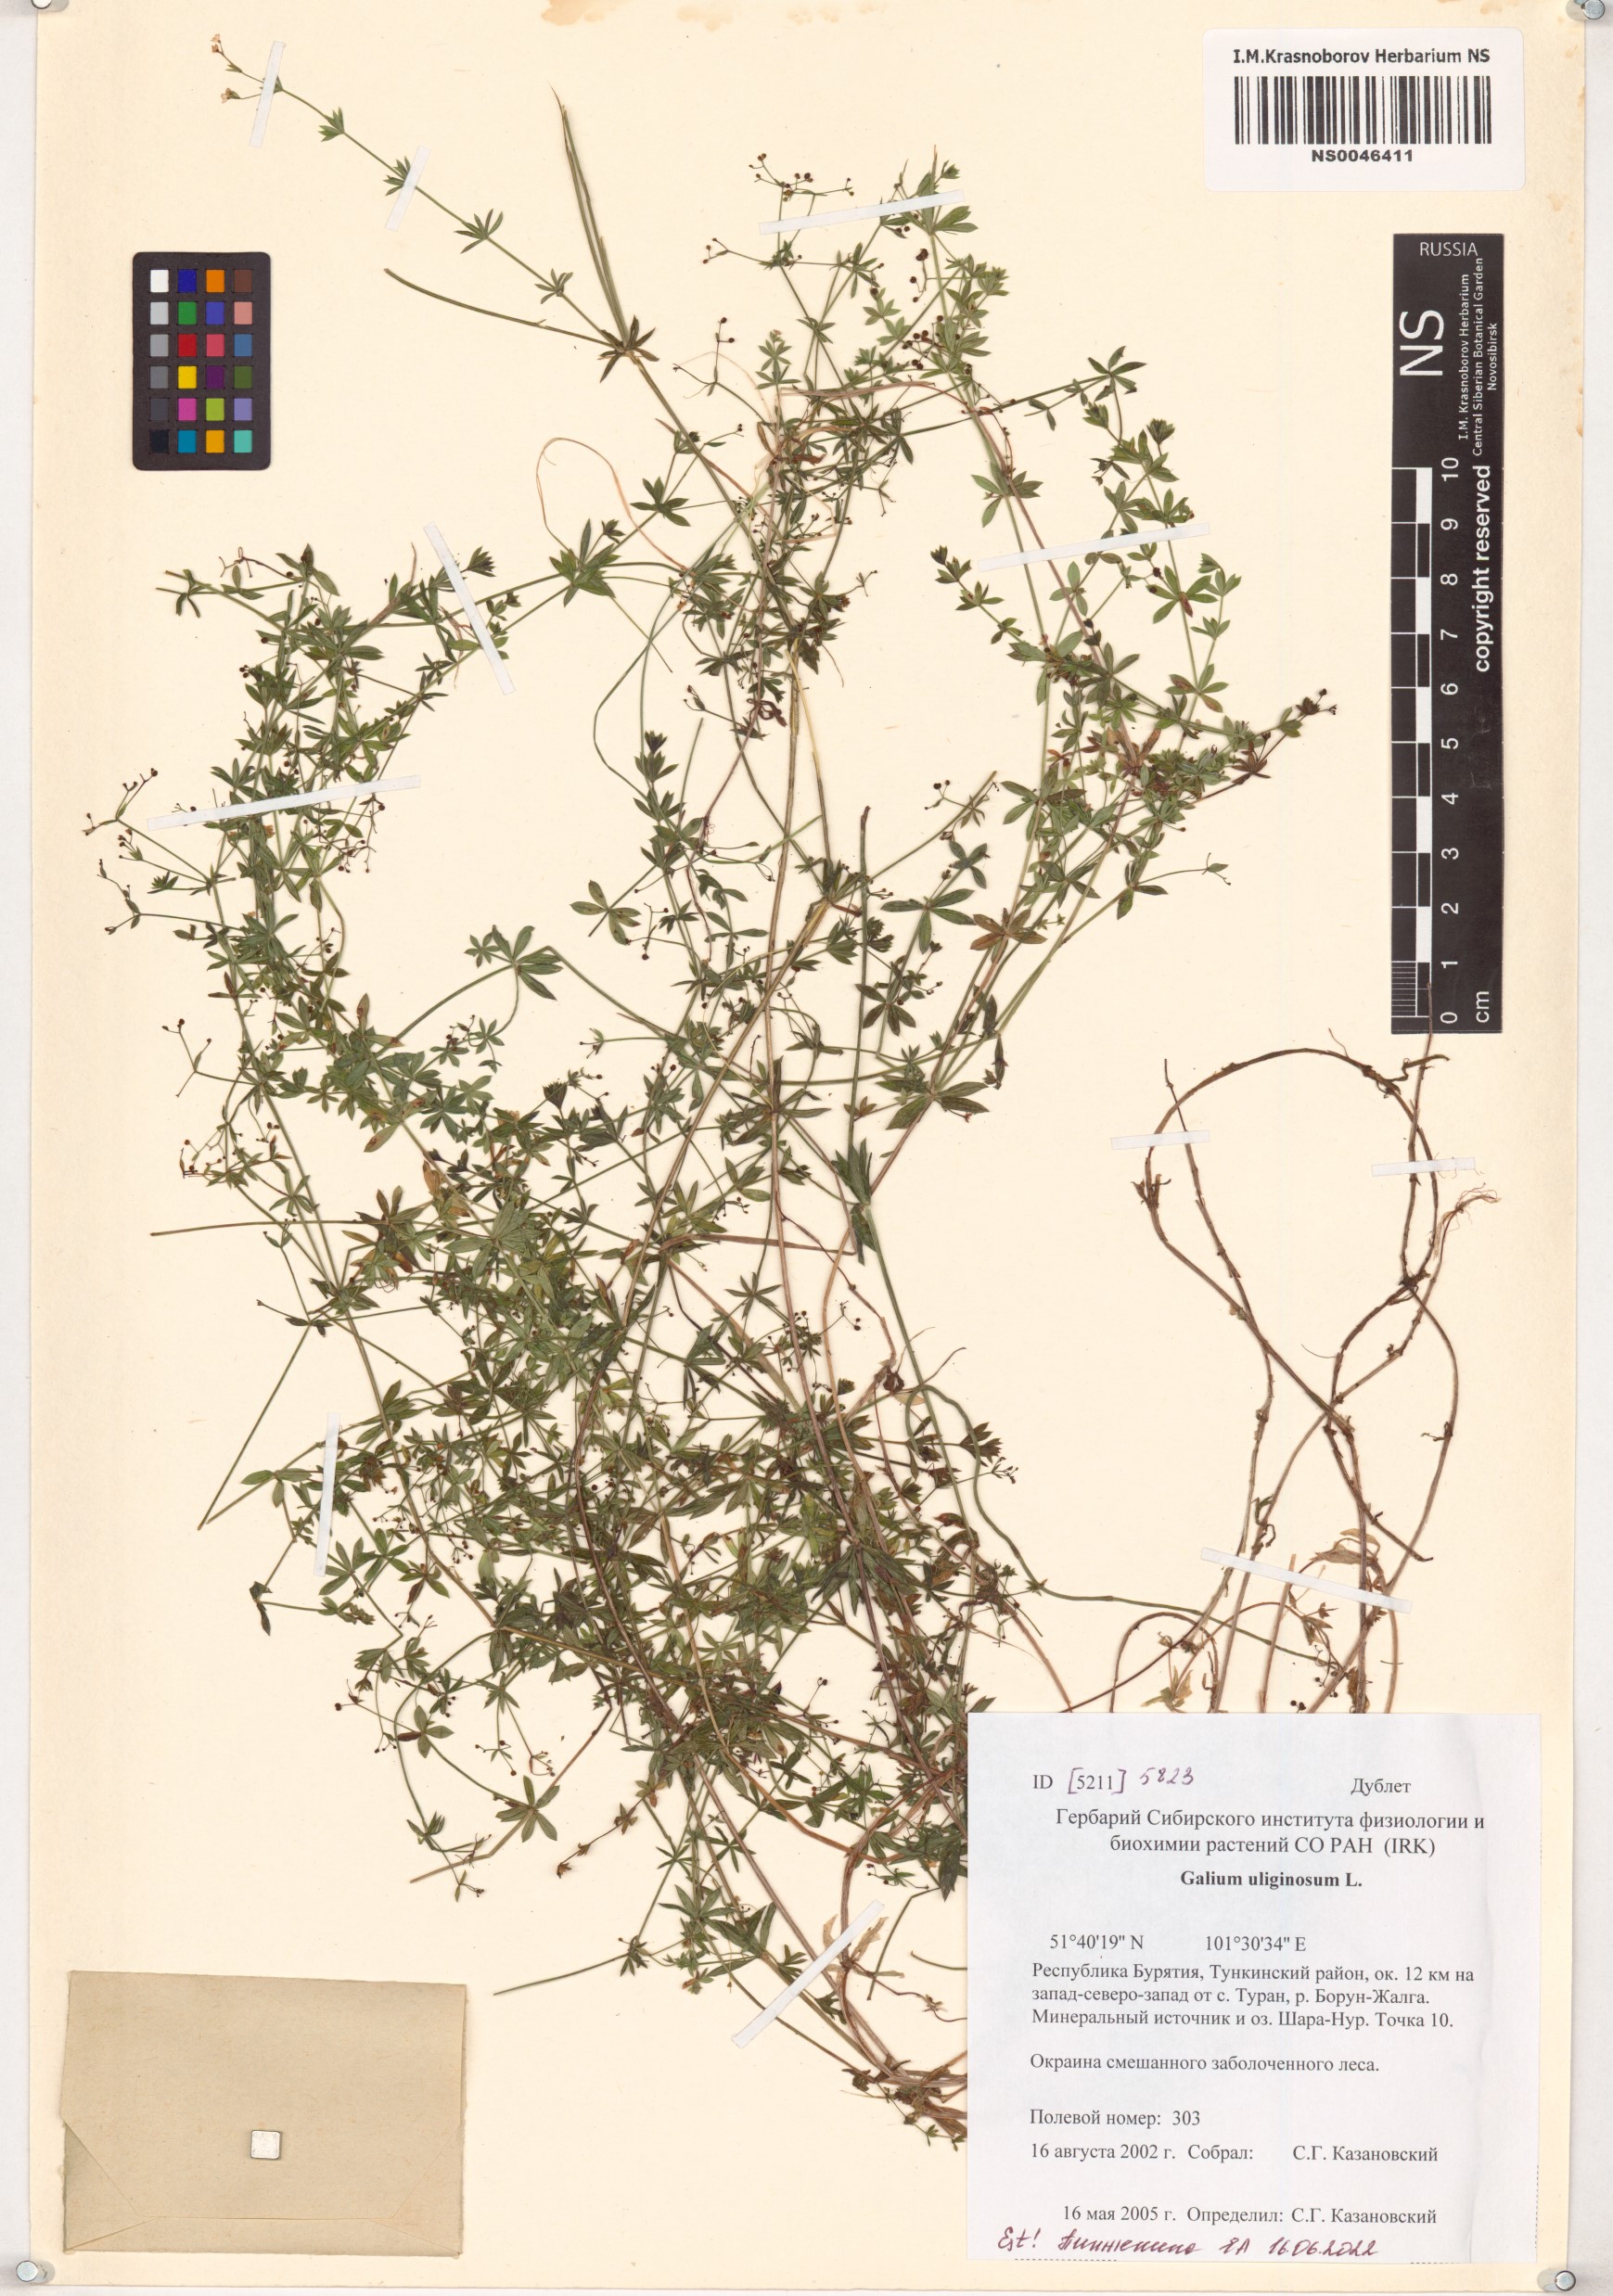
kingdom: Plantae
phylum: Tracheophyta
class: Magnoliopsida
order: Gentianales
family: Rubiaceae
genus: Galium
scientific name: Galium uliginosum
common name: Fen bedstraw
